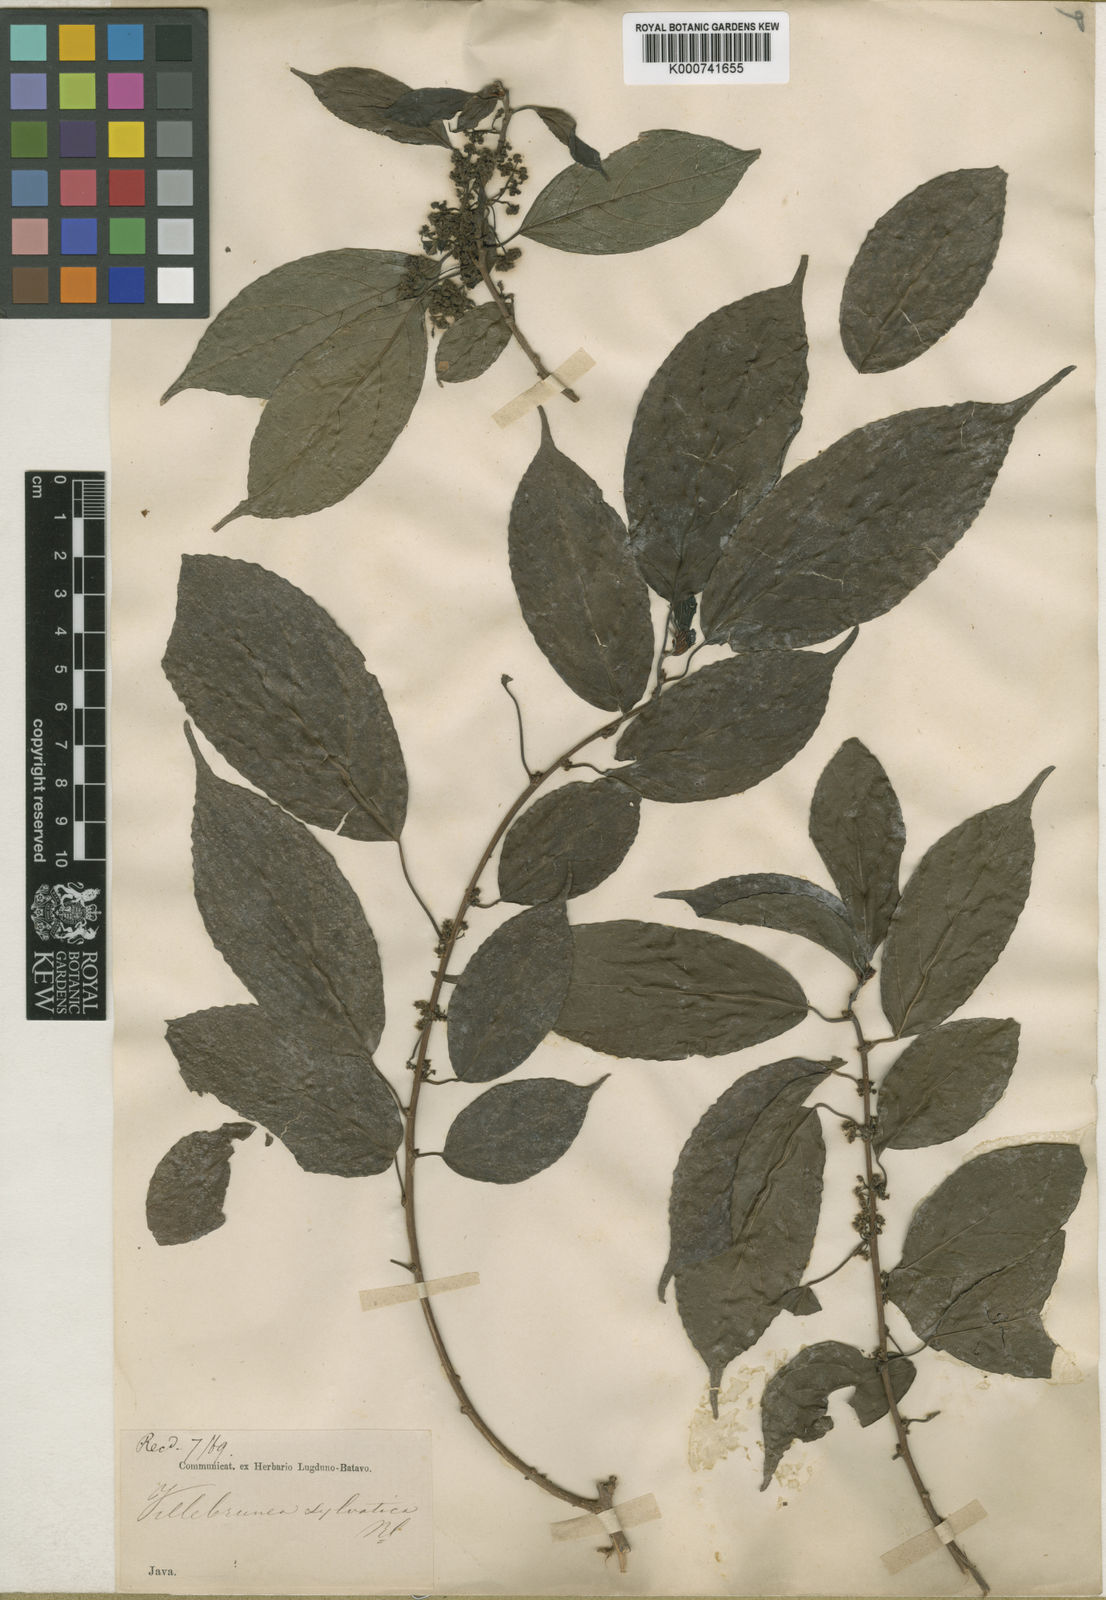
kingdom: Plantae
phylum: Tracheophyta
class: Magnoliopsida
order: Rosales
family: Urticaceae
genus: Oreocnide
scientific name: Oreocnide integrifolia
